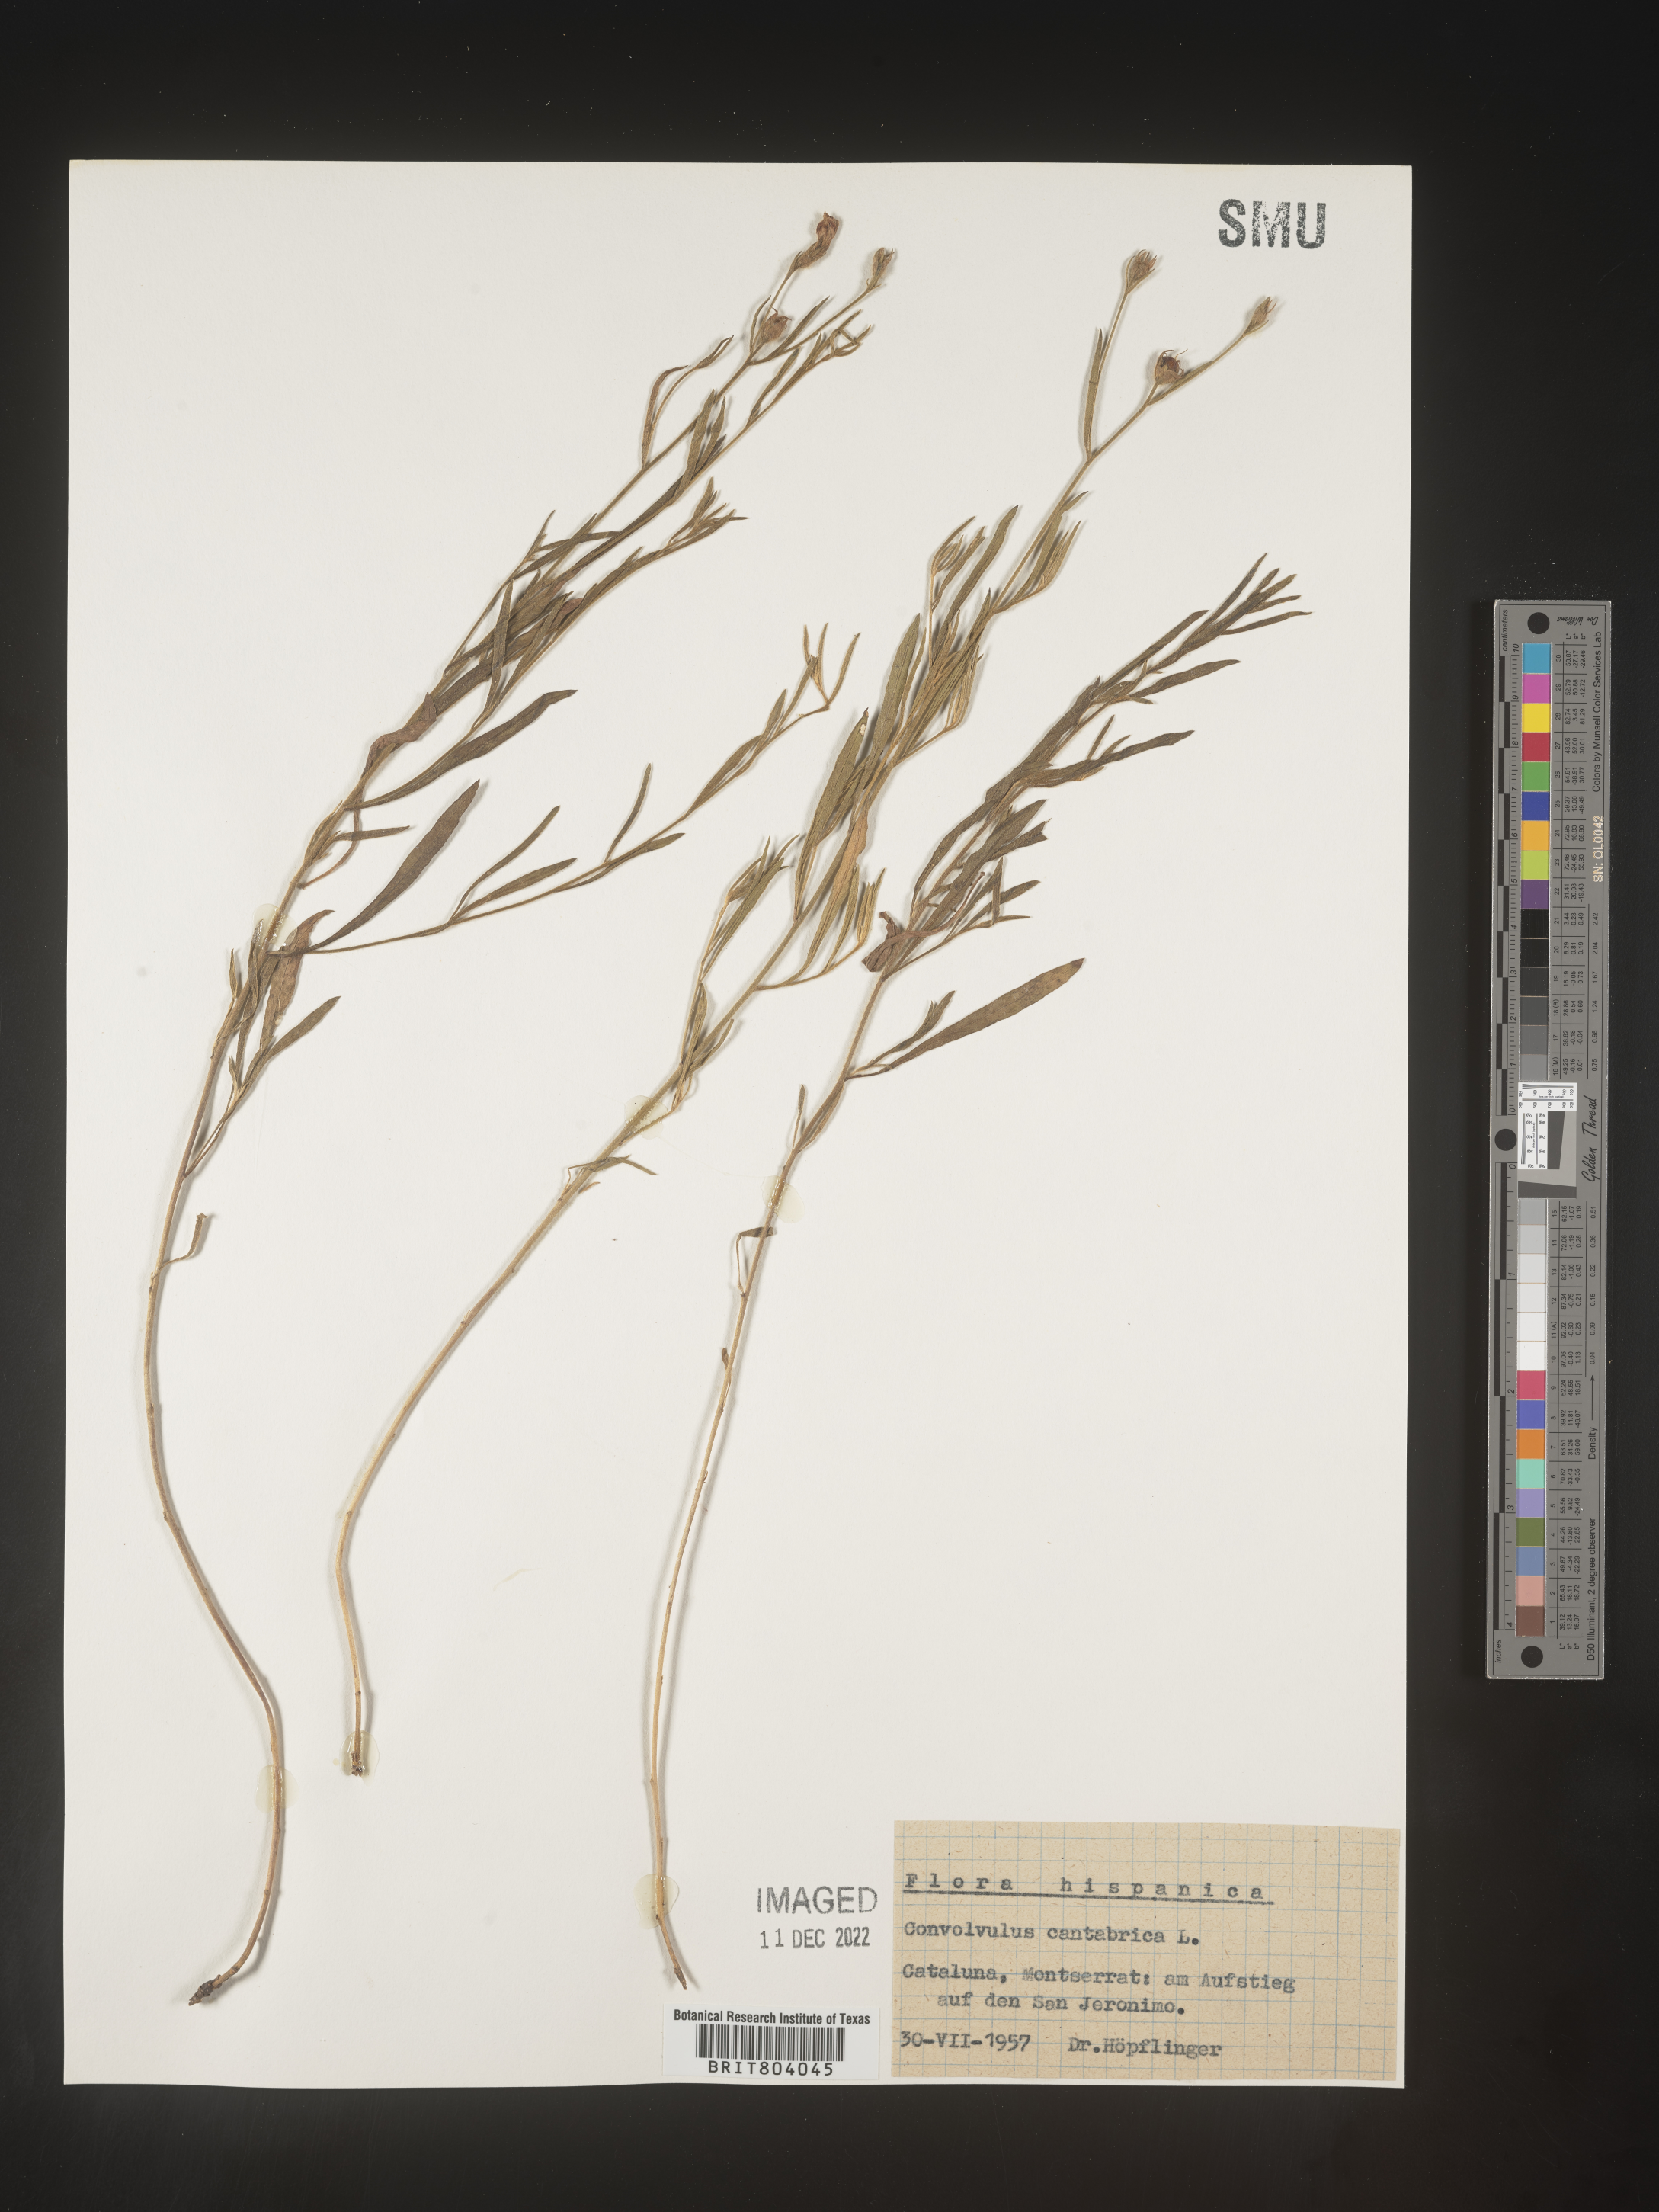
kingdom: Plantae
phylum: Tracheophyta
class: Magnoliopsida
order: Solanales
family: Convolvulaceae
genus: Convolvulus
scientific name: Convolvulus
